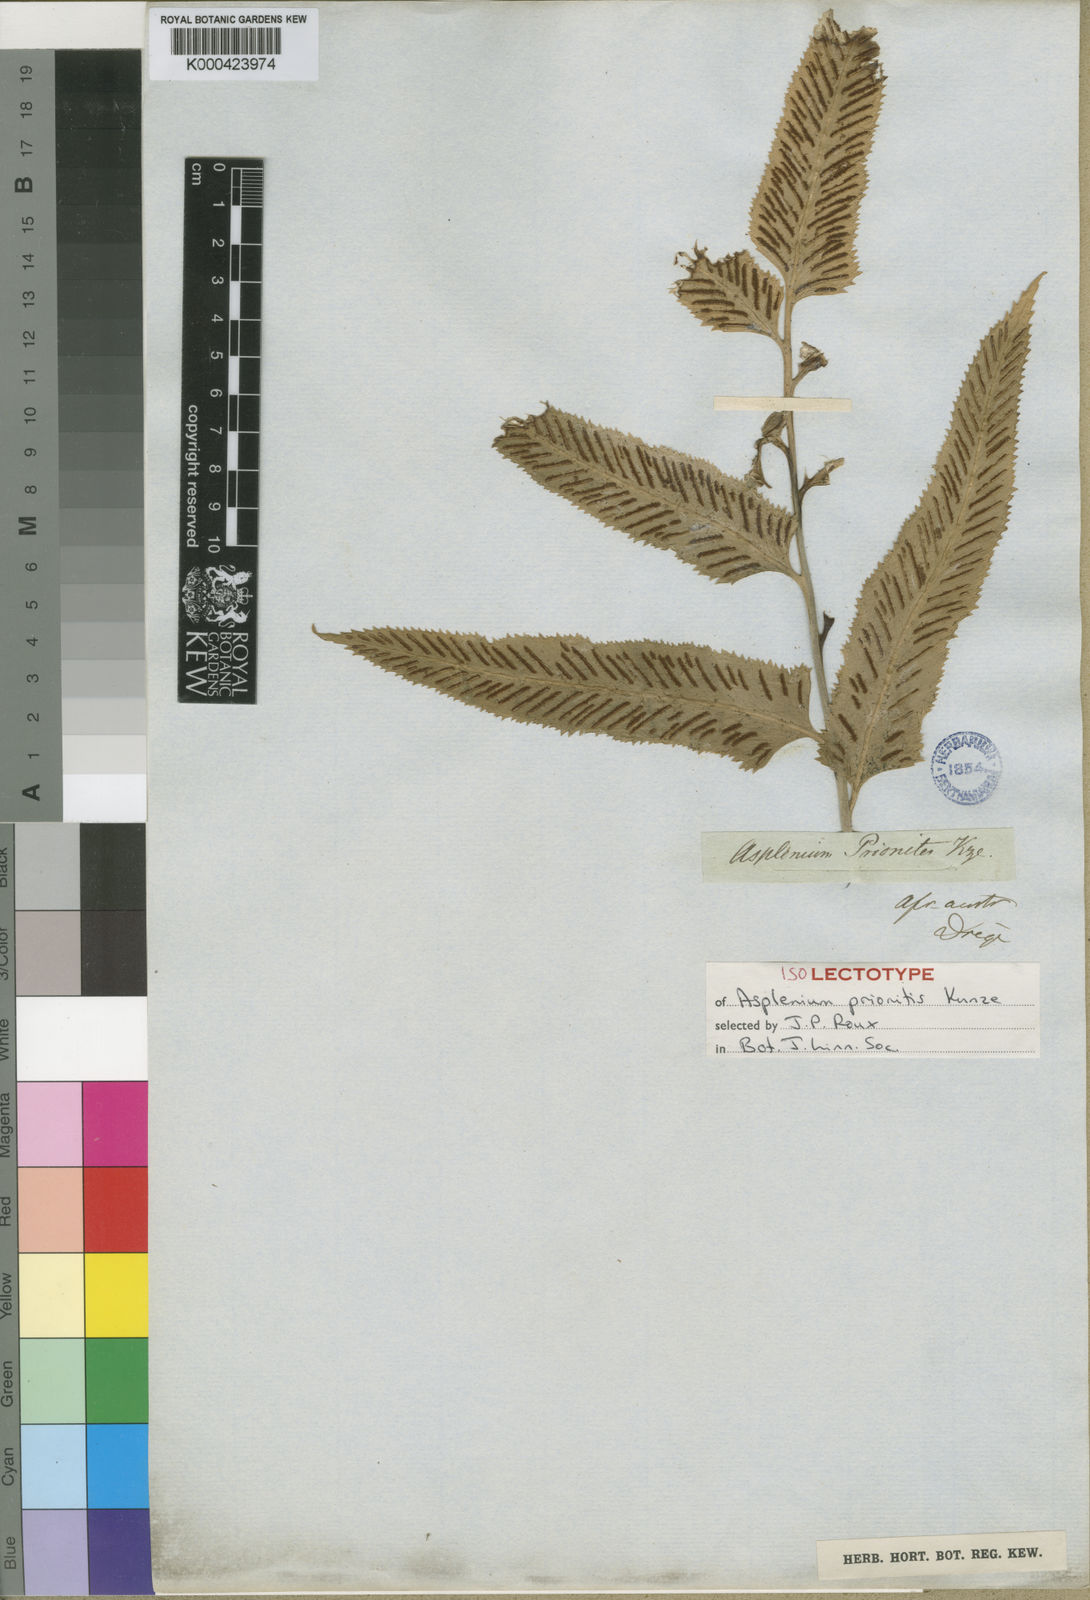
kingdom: Plantae
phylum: Tracheophyta
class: Polypodiopsida
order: Polypodiales
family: Aspleniaceae
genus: Asplenium
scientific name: Asplenium
